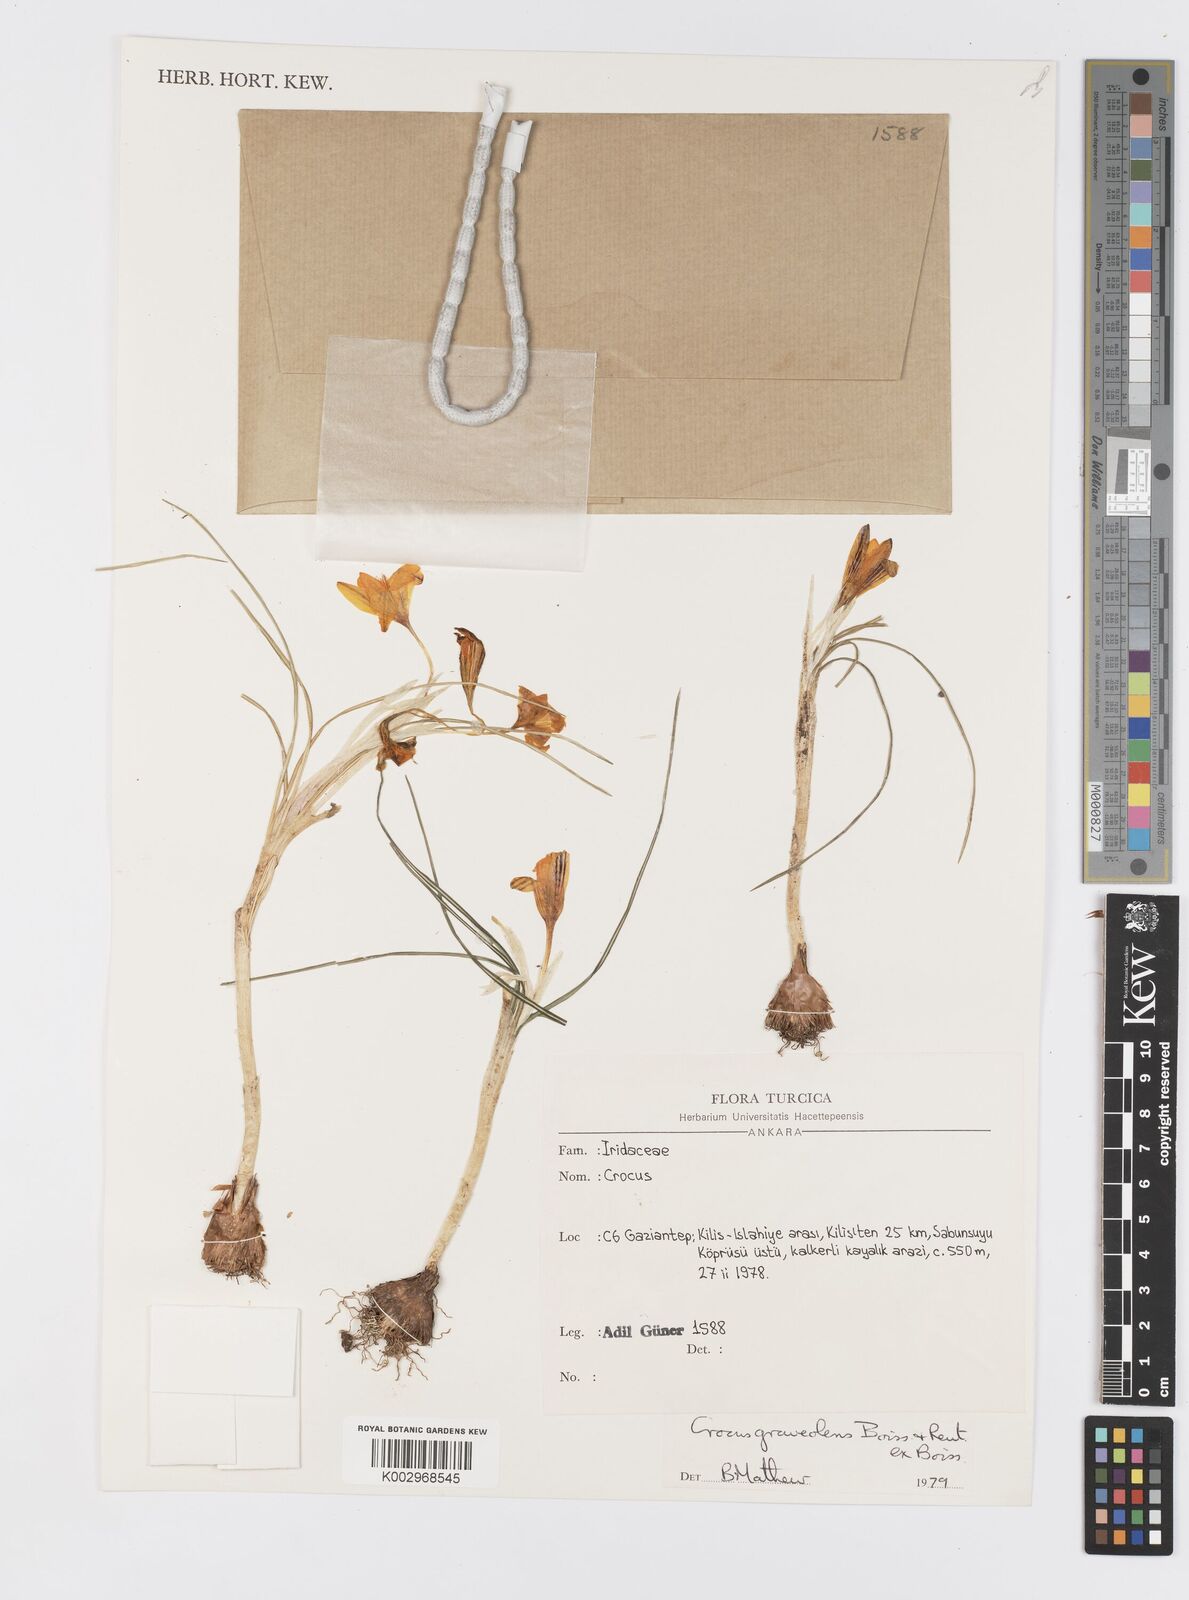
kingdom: Plantae
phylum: Tracheophyta
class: Liliopsida
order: Asparagales
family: Iridaceae
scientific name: Iridaceae
